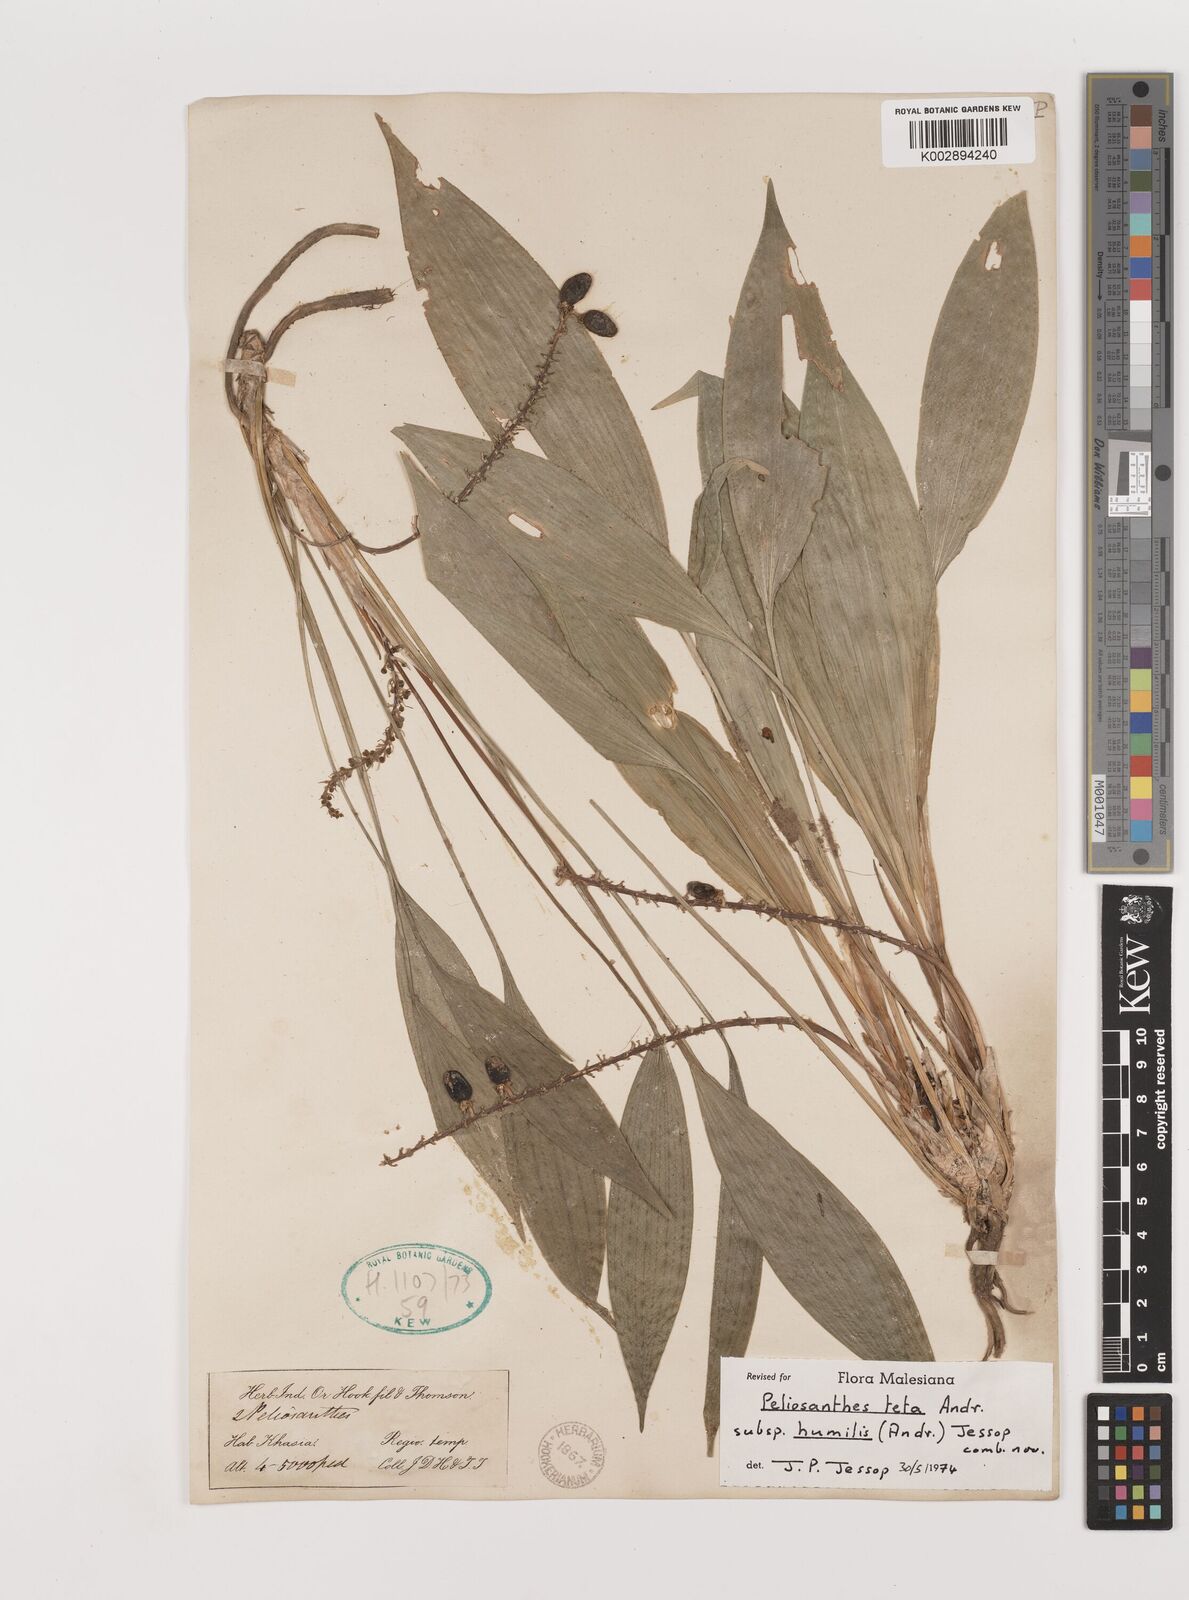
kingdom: Plantae
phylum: Tracheophyta
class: Liliopsida
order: Asparagales
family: Asparagaceae
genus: Peliosanthes
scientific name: Peliosanthes teta
